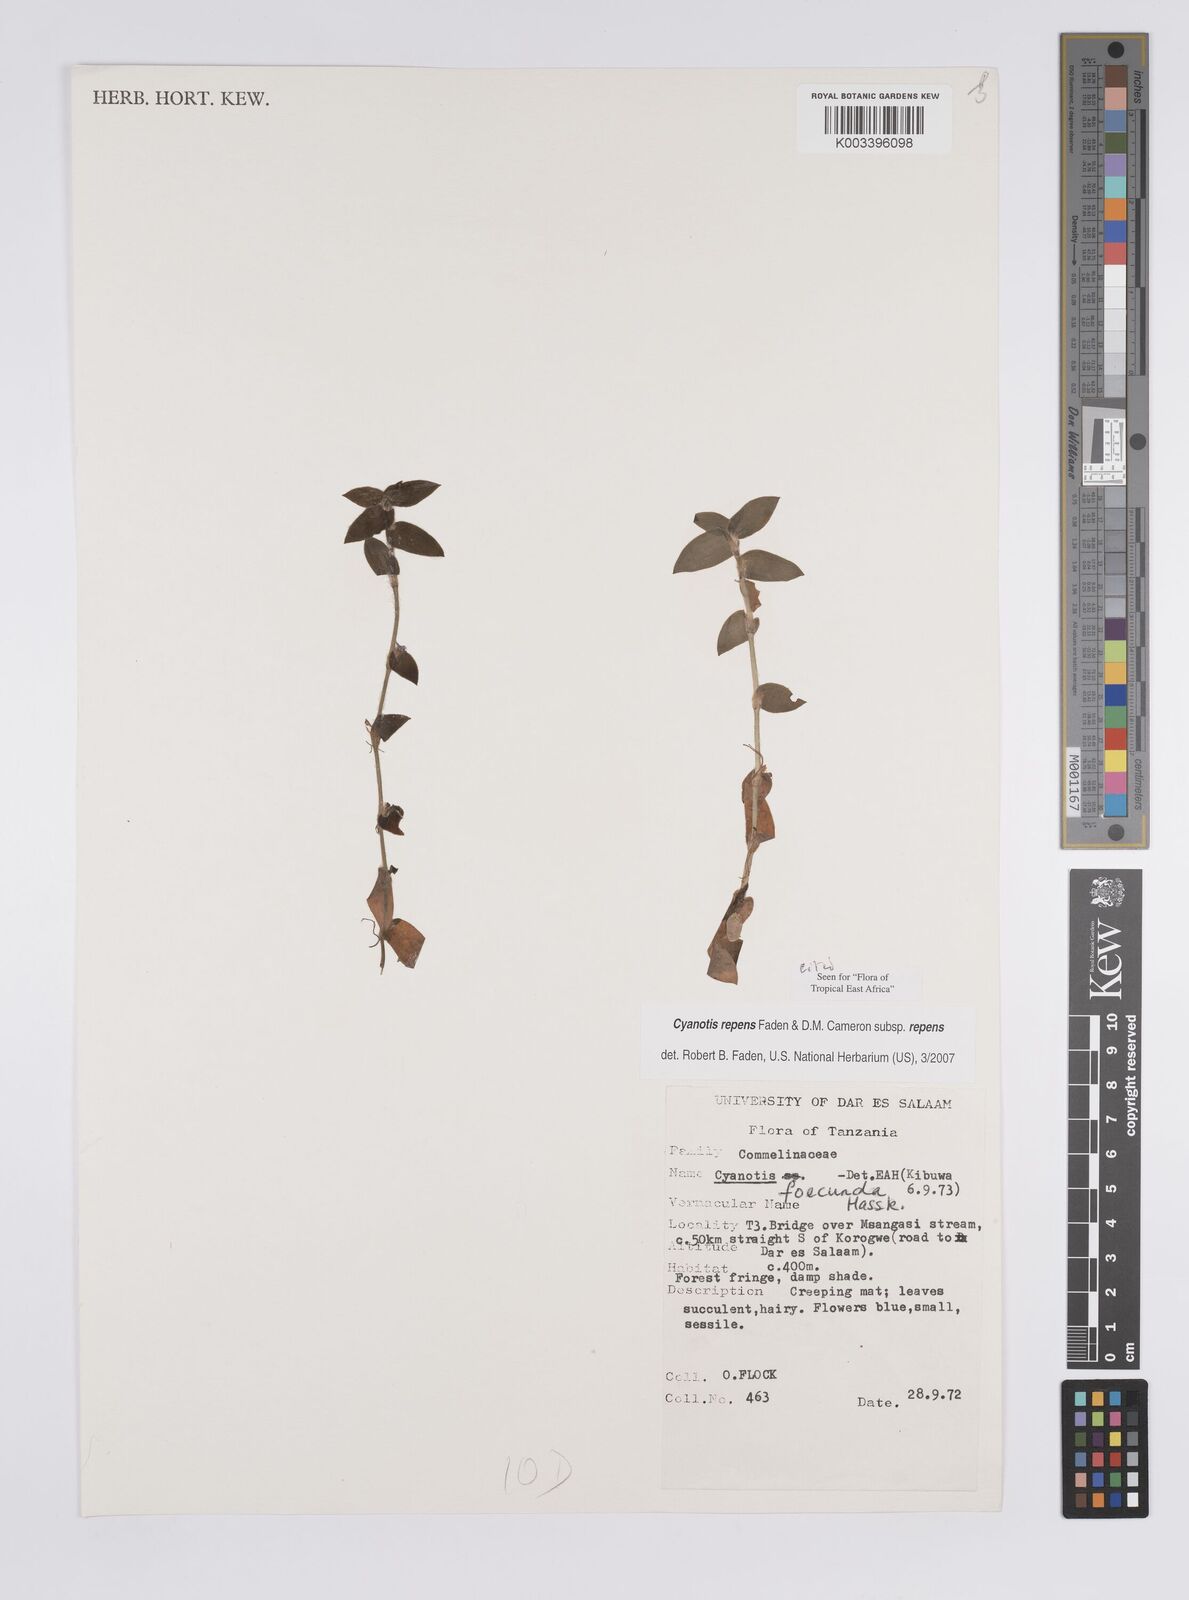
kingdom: Plantae
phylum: Tracheophyta
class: Liliopsida
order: Commelinales
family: Commelinaceae
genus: Cyanotis
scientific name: Cyanotis repens
